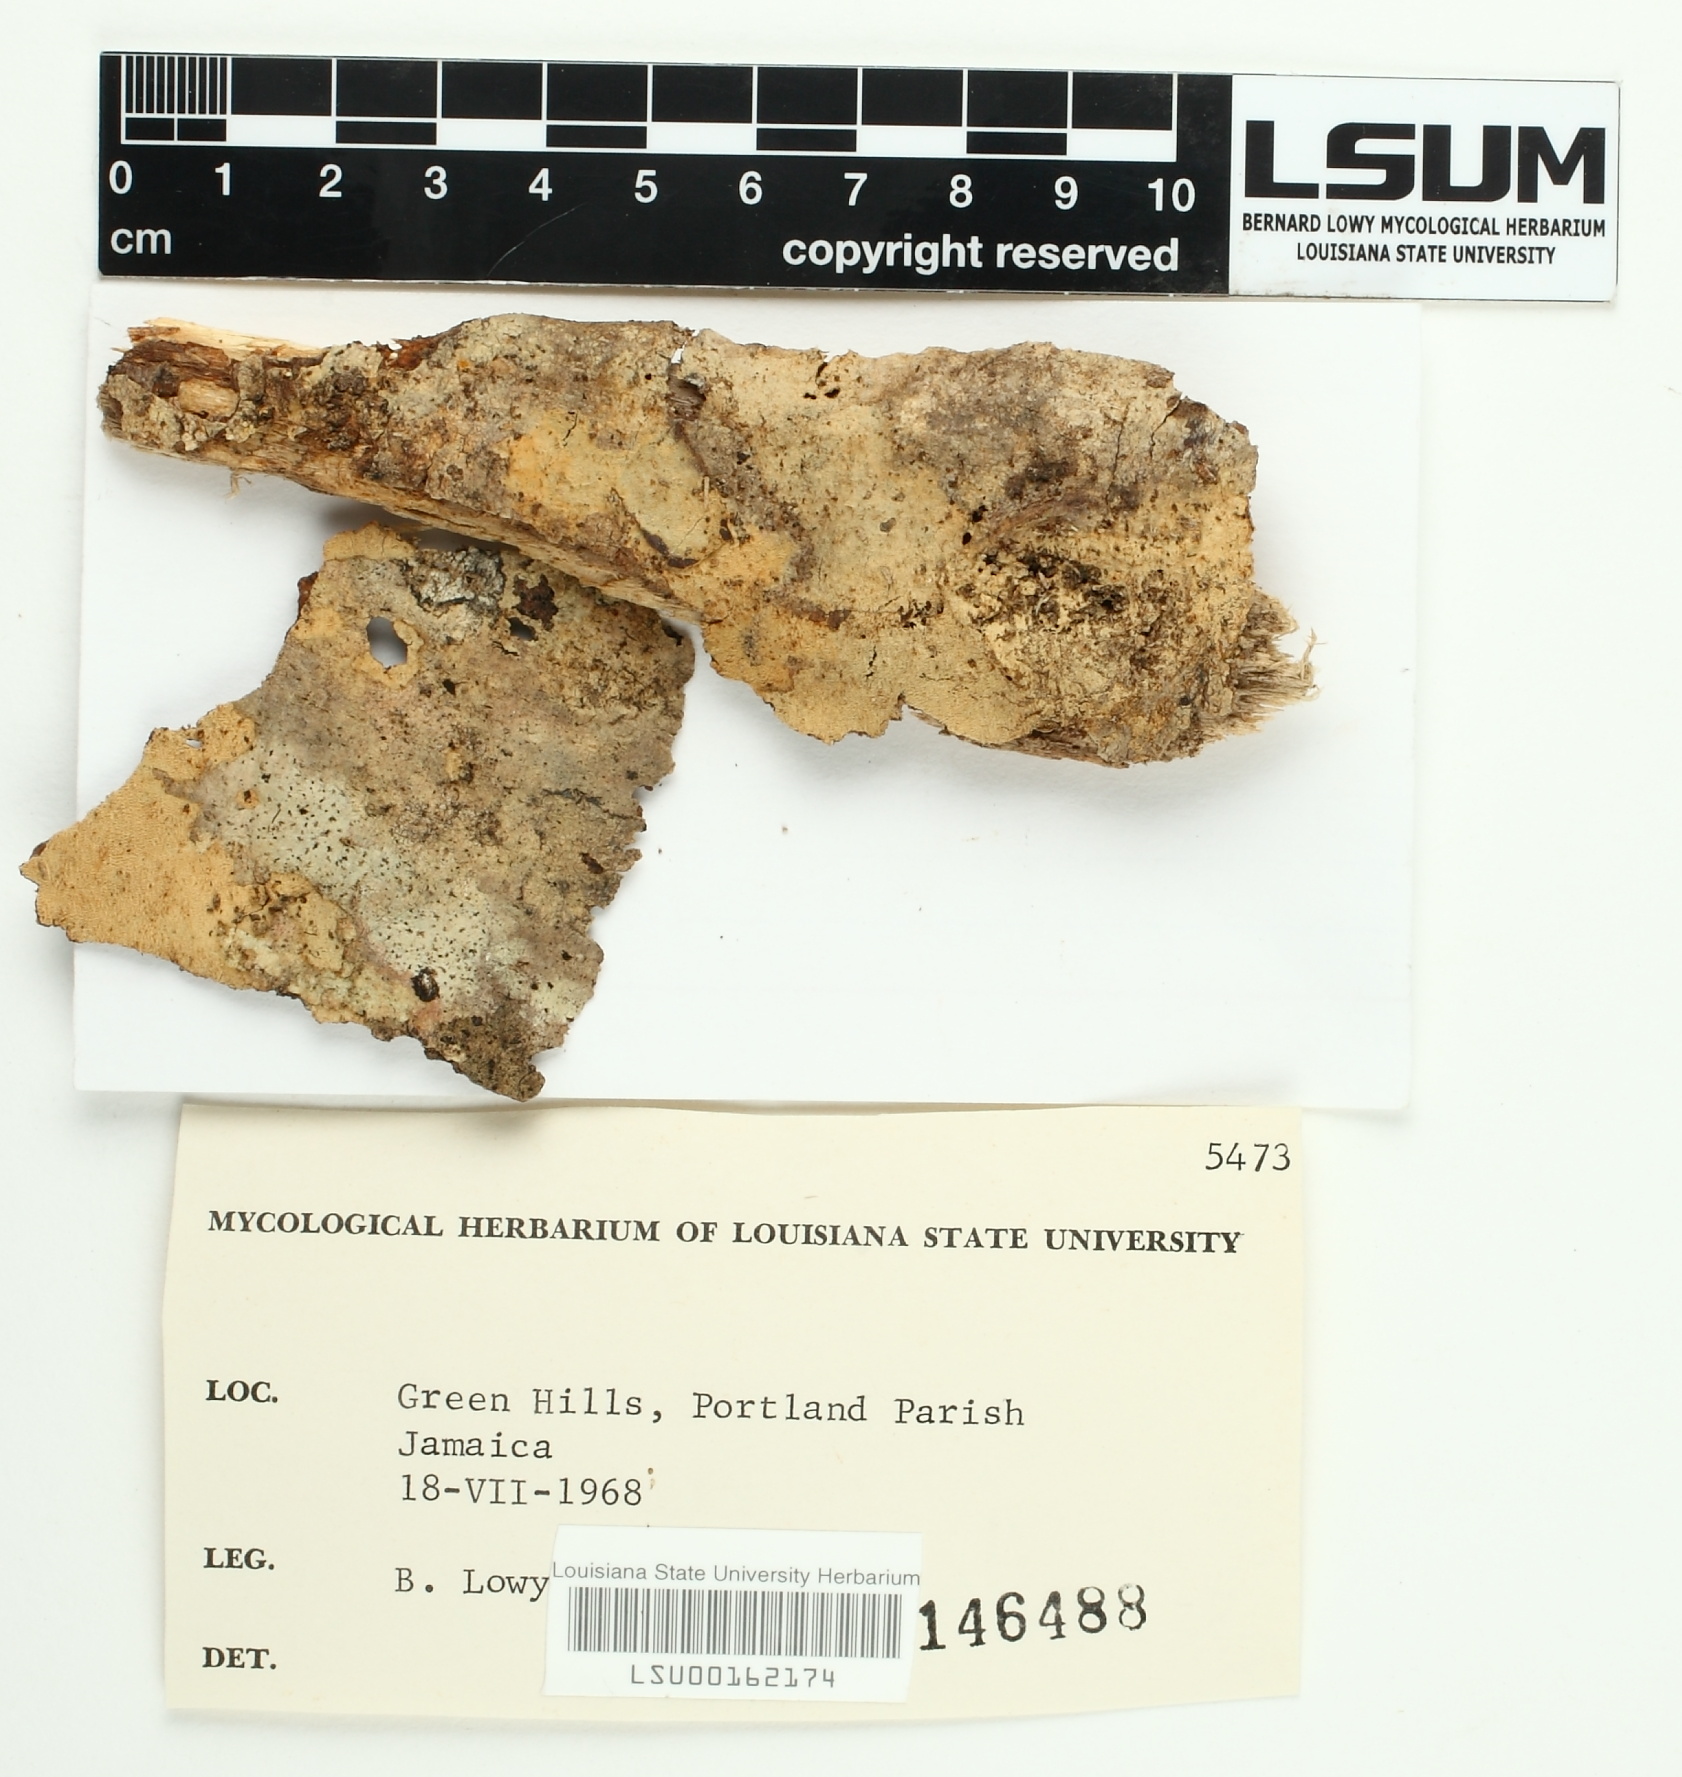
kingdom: Fungi
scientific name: Fungi
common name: Fungi
